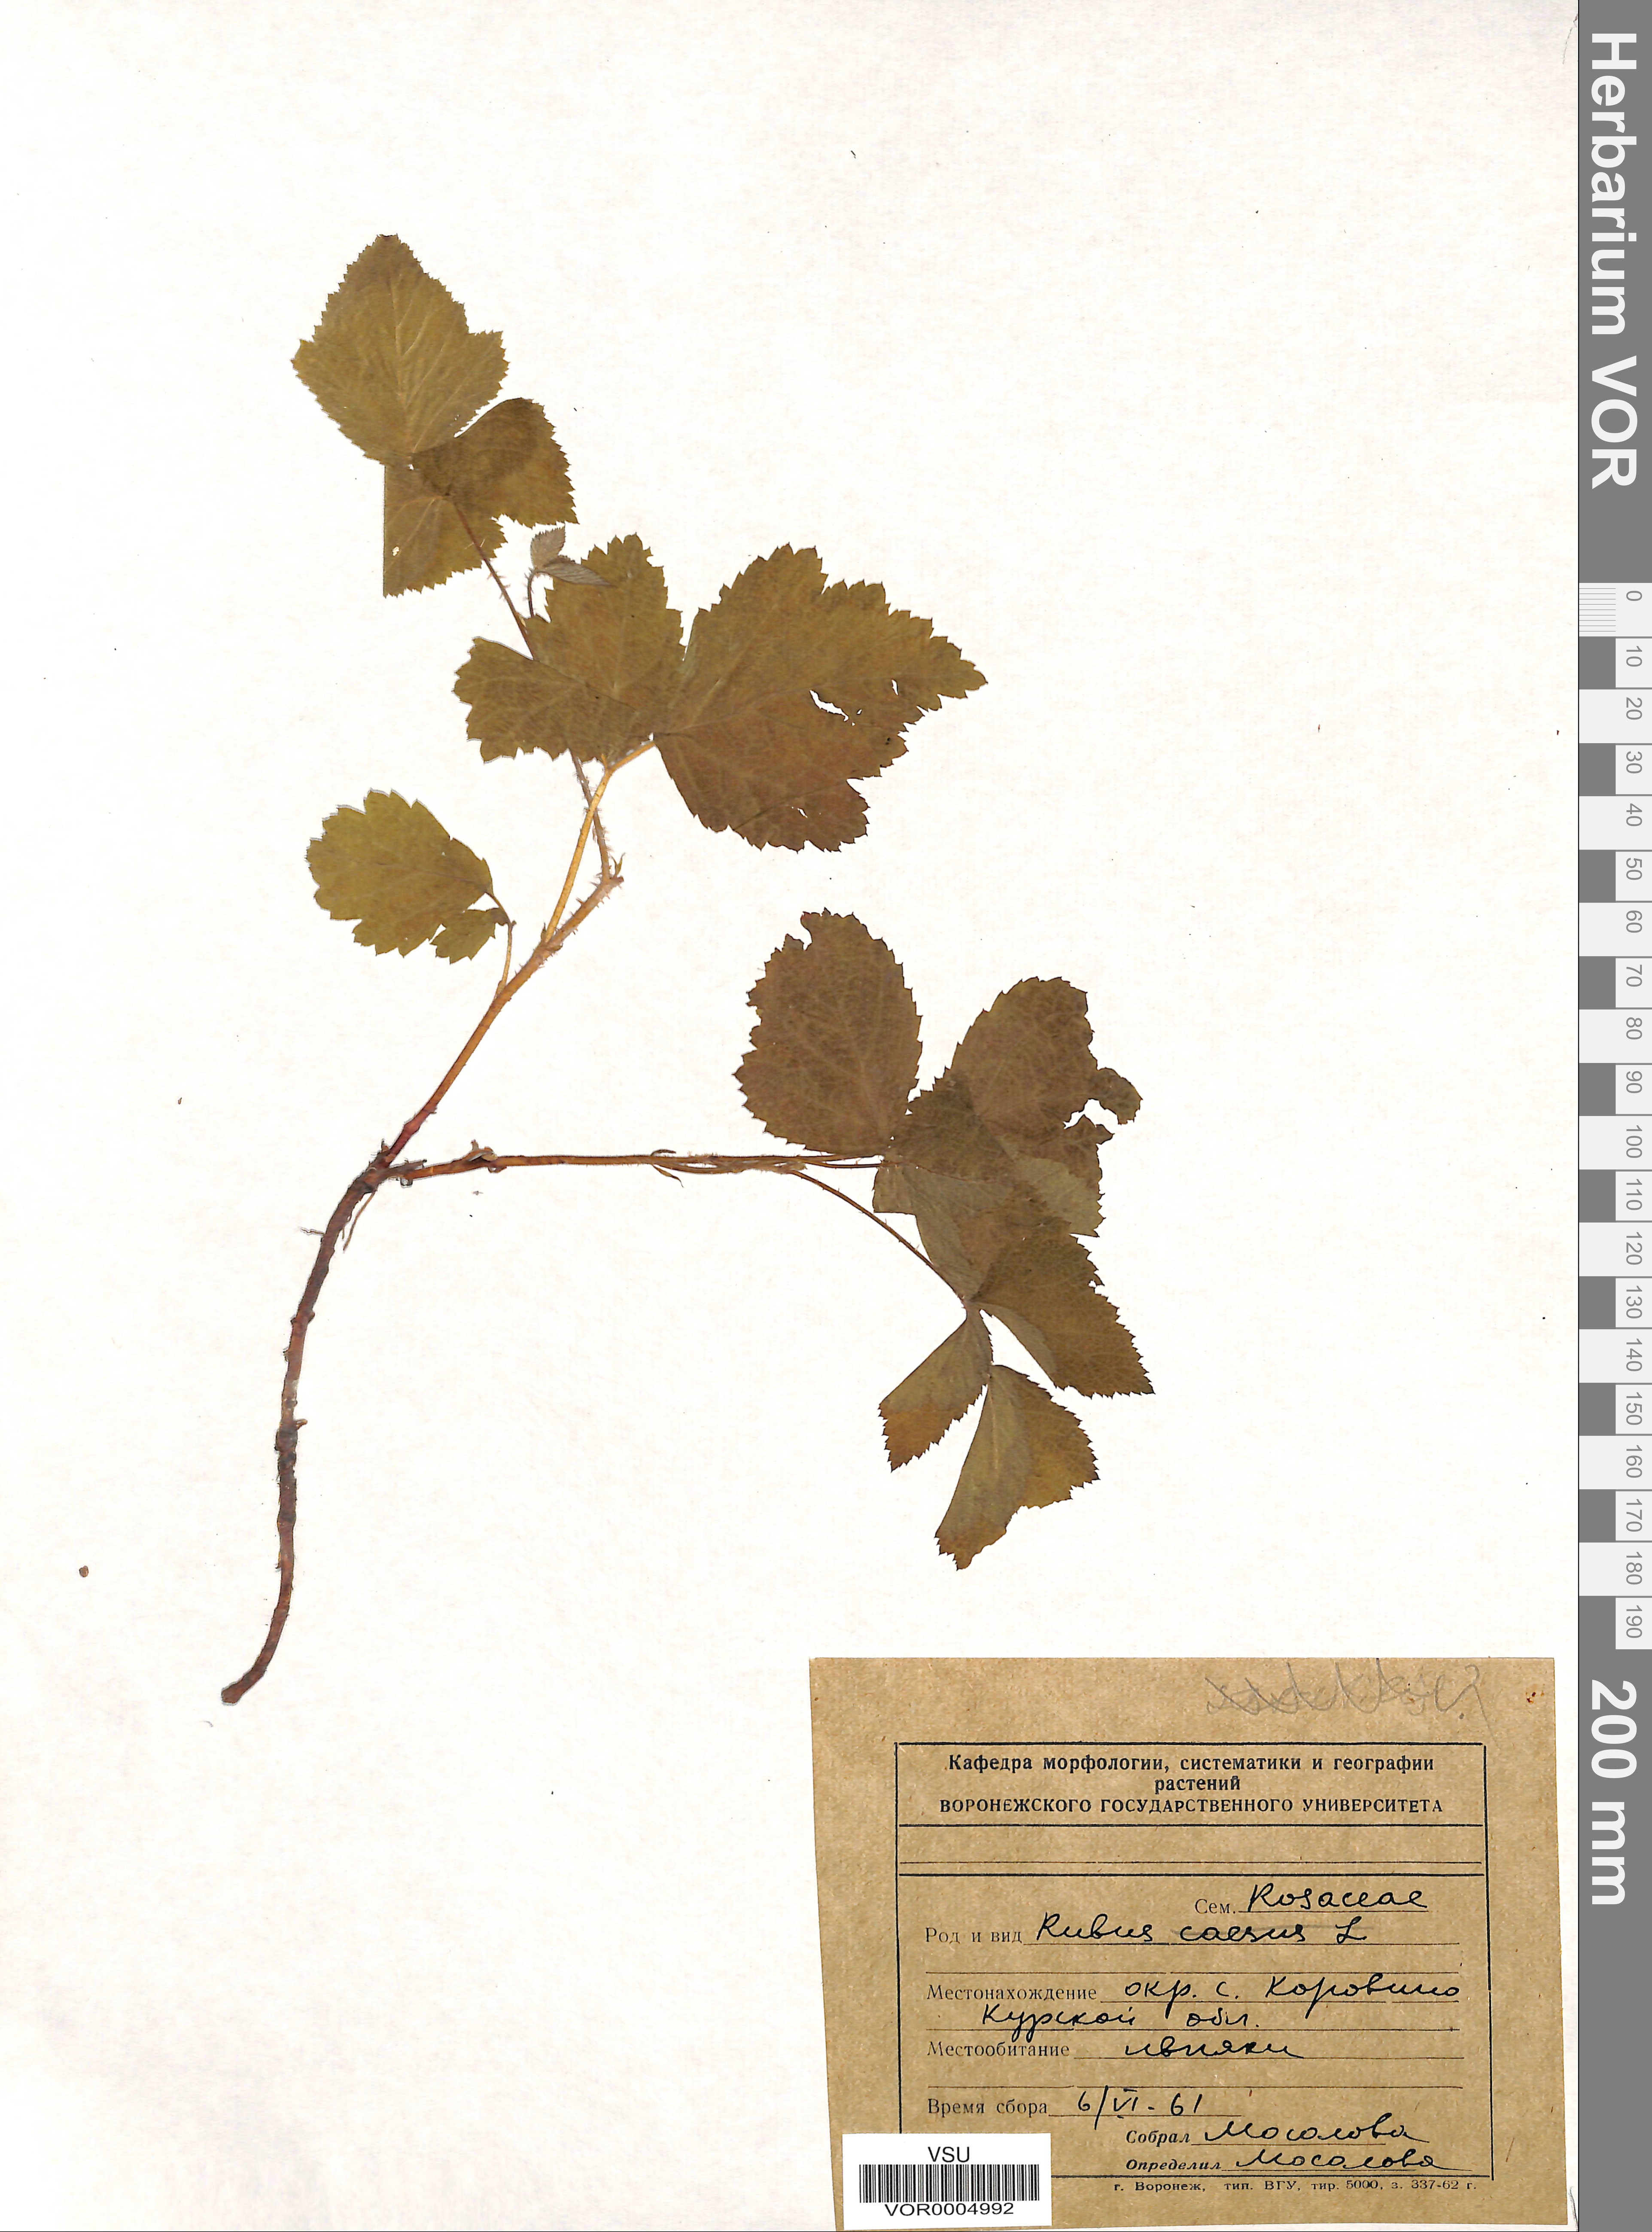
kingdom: Plantae
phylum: Tracheophyta
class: Magnoliopsida
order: Rosales
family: Rosaceae
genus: Rubus
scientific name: Rubus caesius
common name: Dewberry
